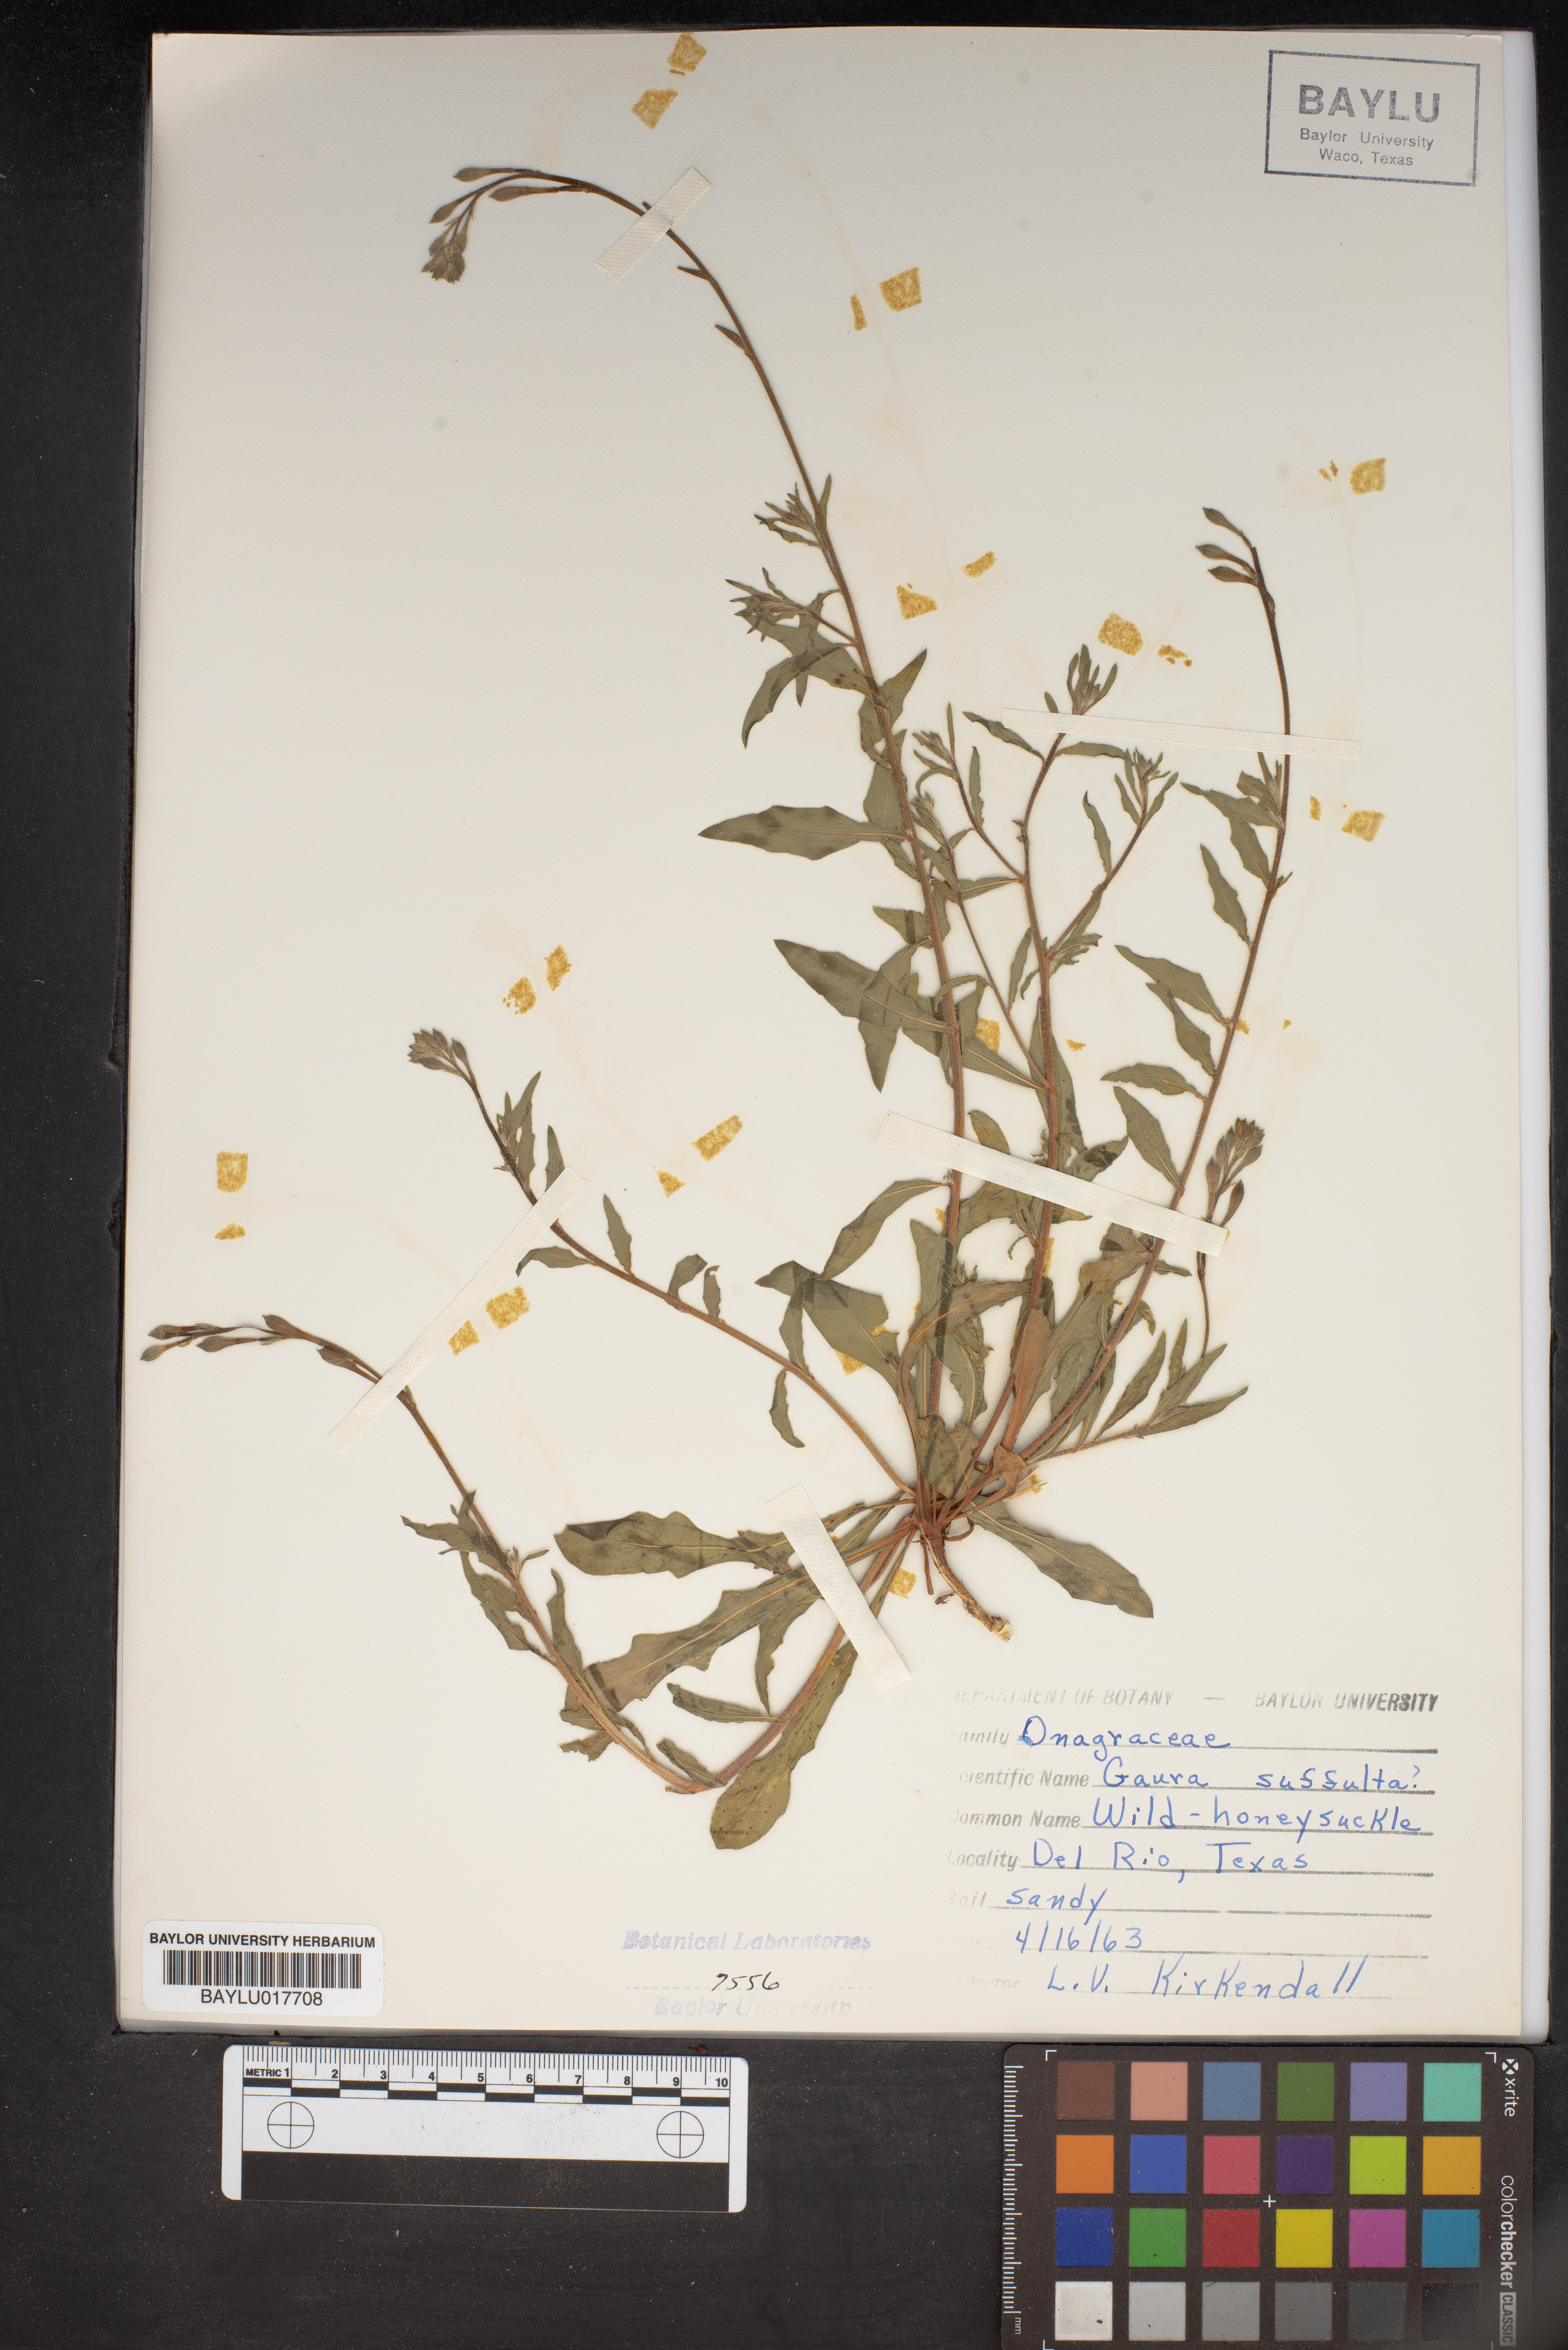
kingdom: Plantae
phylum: Tracheophyta
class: Magnoliopsida
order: Myrtales
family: Onagraceae
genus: Oenothera
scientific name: Oenothera Gaura suffulta
